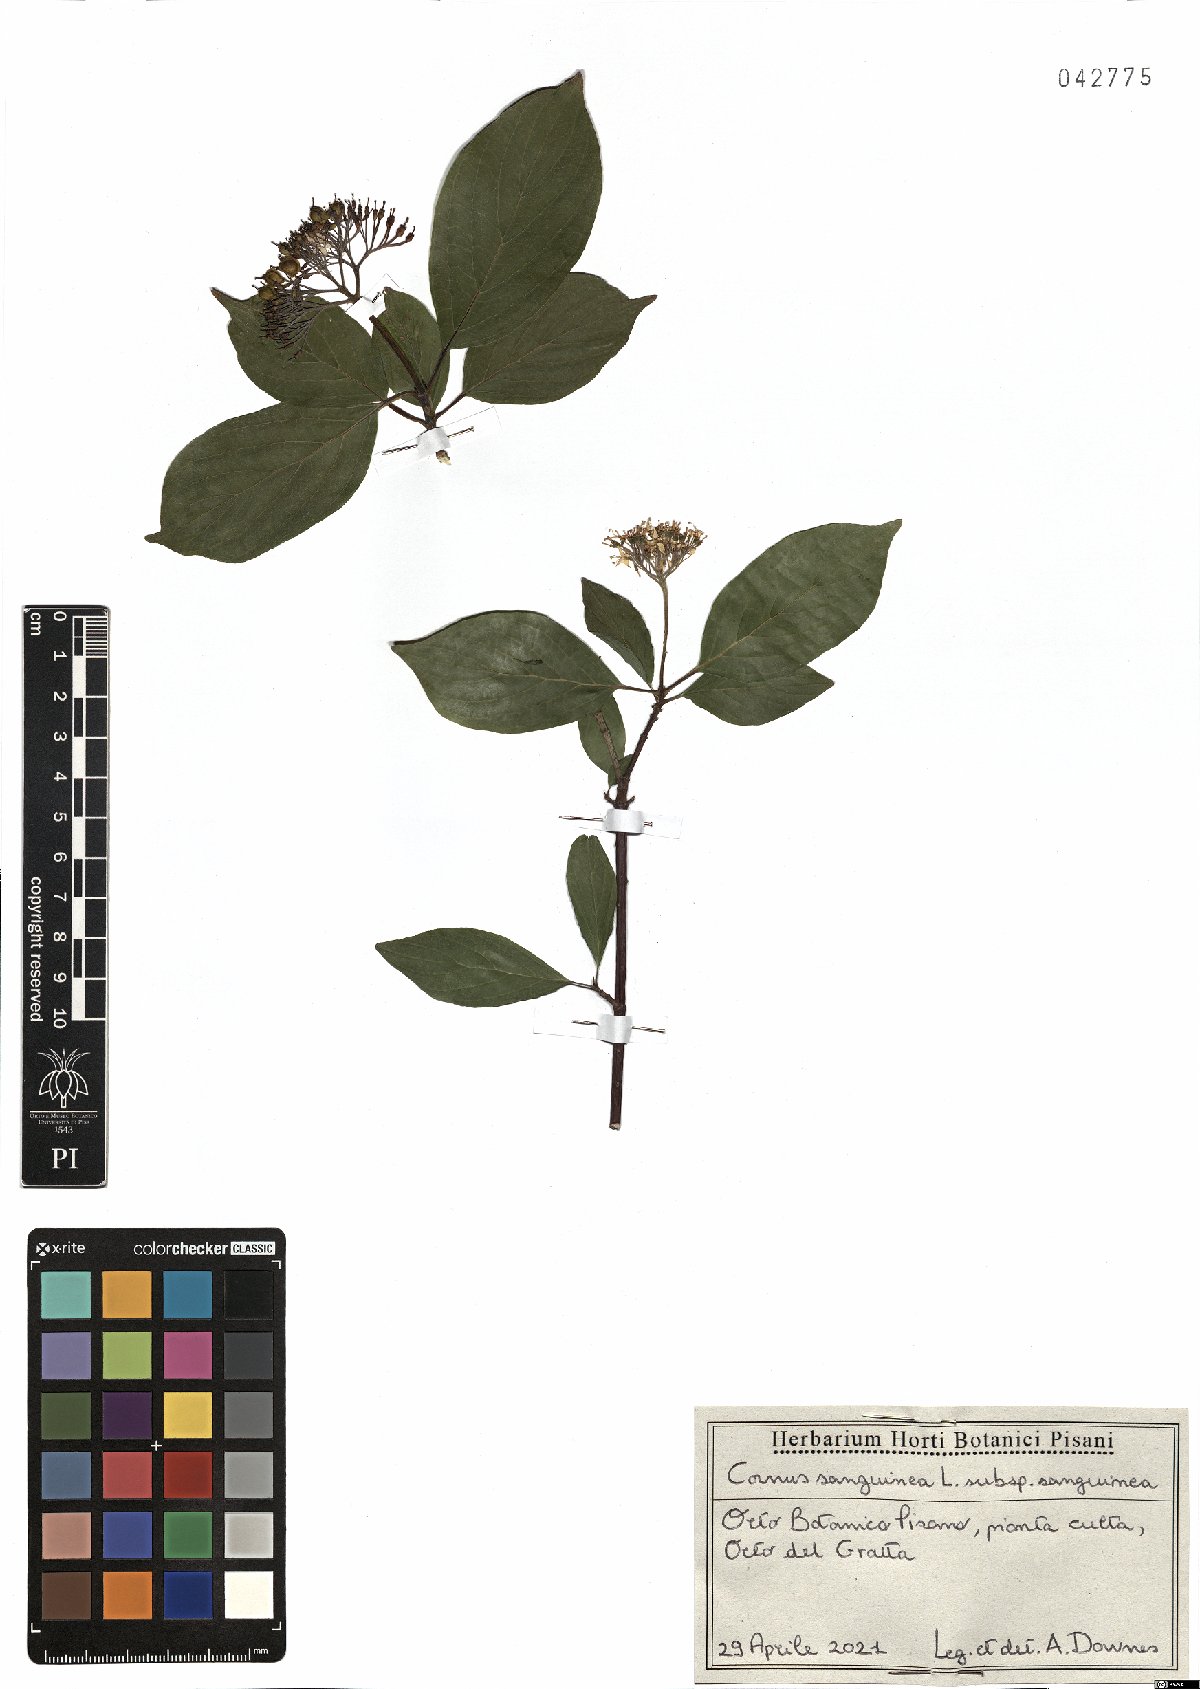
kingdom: Plantae
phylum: Tracheophyta
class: Magnoliopsida
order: Cornales
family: Cornaceae
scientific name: Cornaceae
